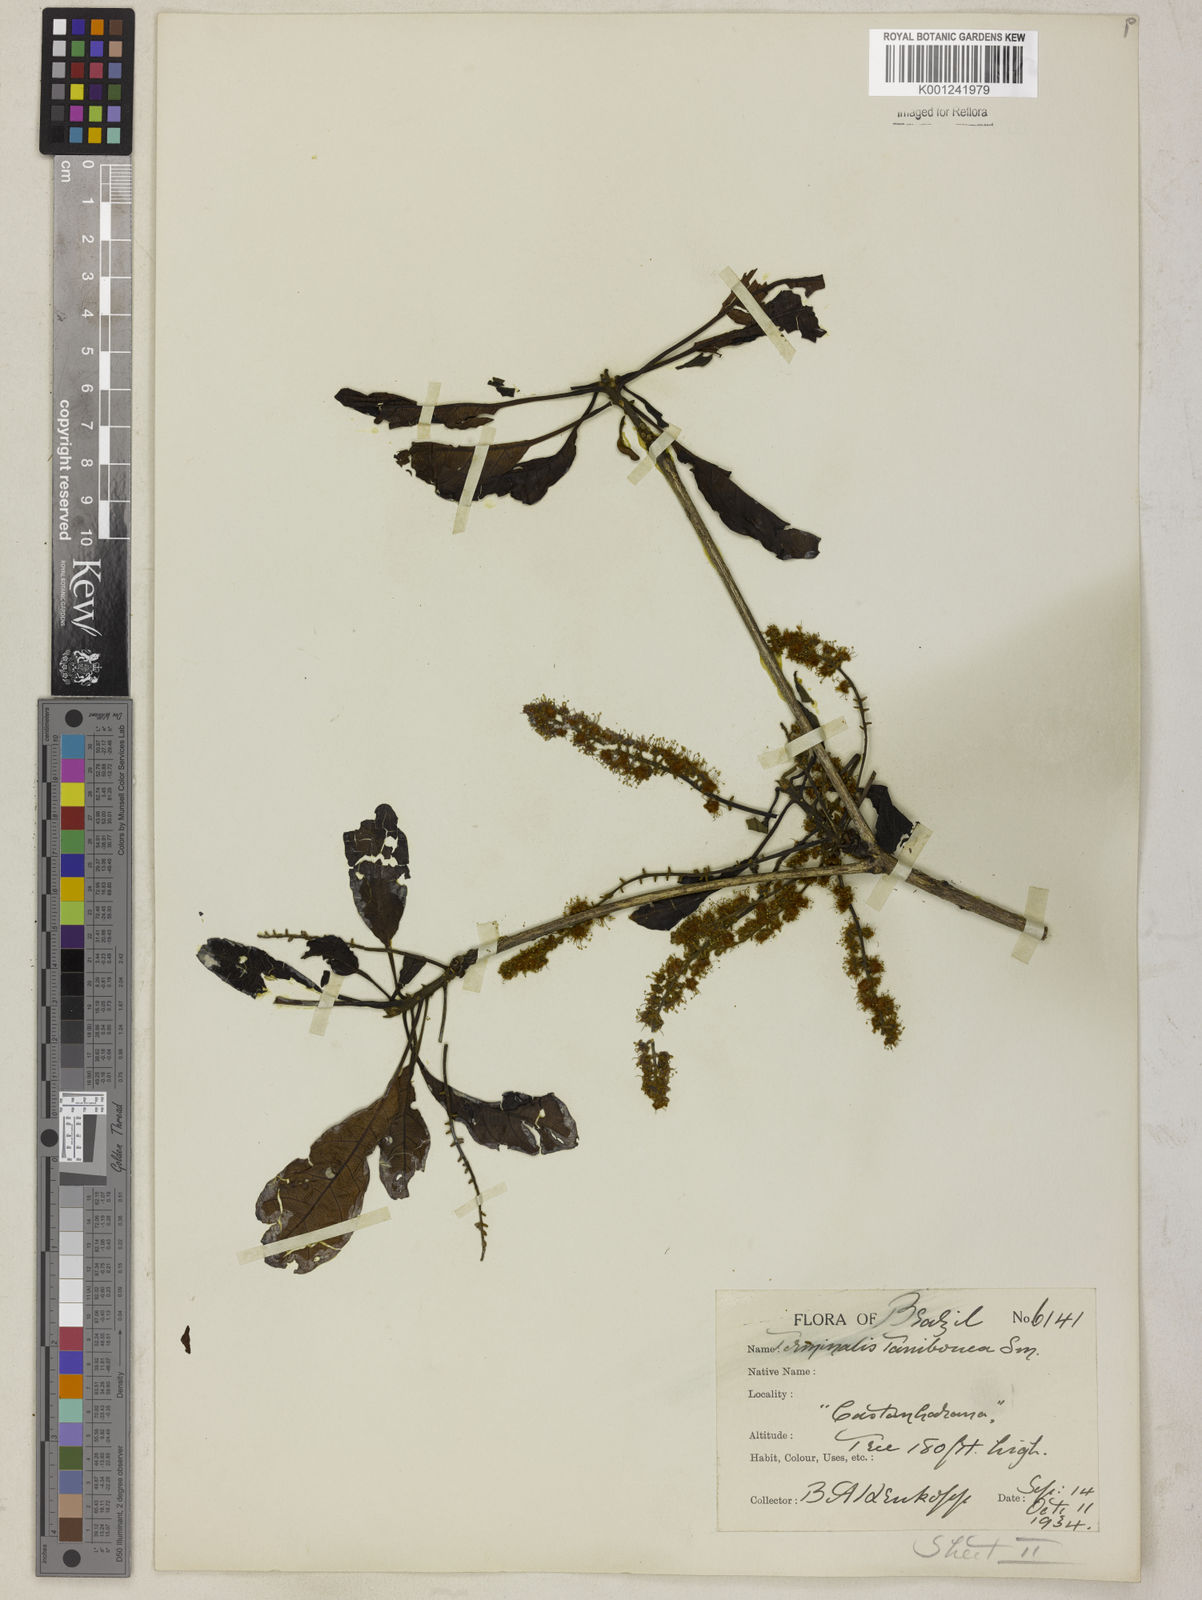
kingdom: Plantae
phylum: Tracheophyta
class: Magnoliopsida
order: Myrtales
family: Combretaceae
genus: Terminalia
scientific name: Terminalia dichotoma
